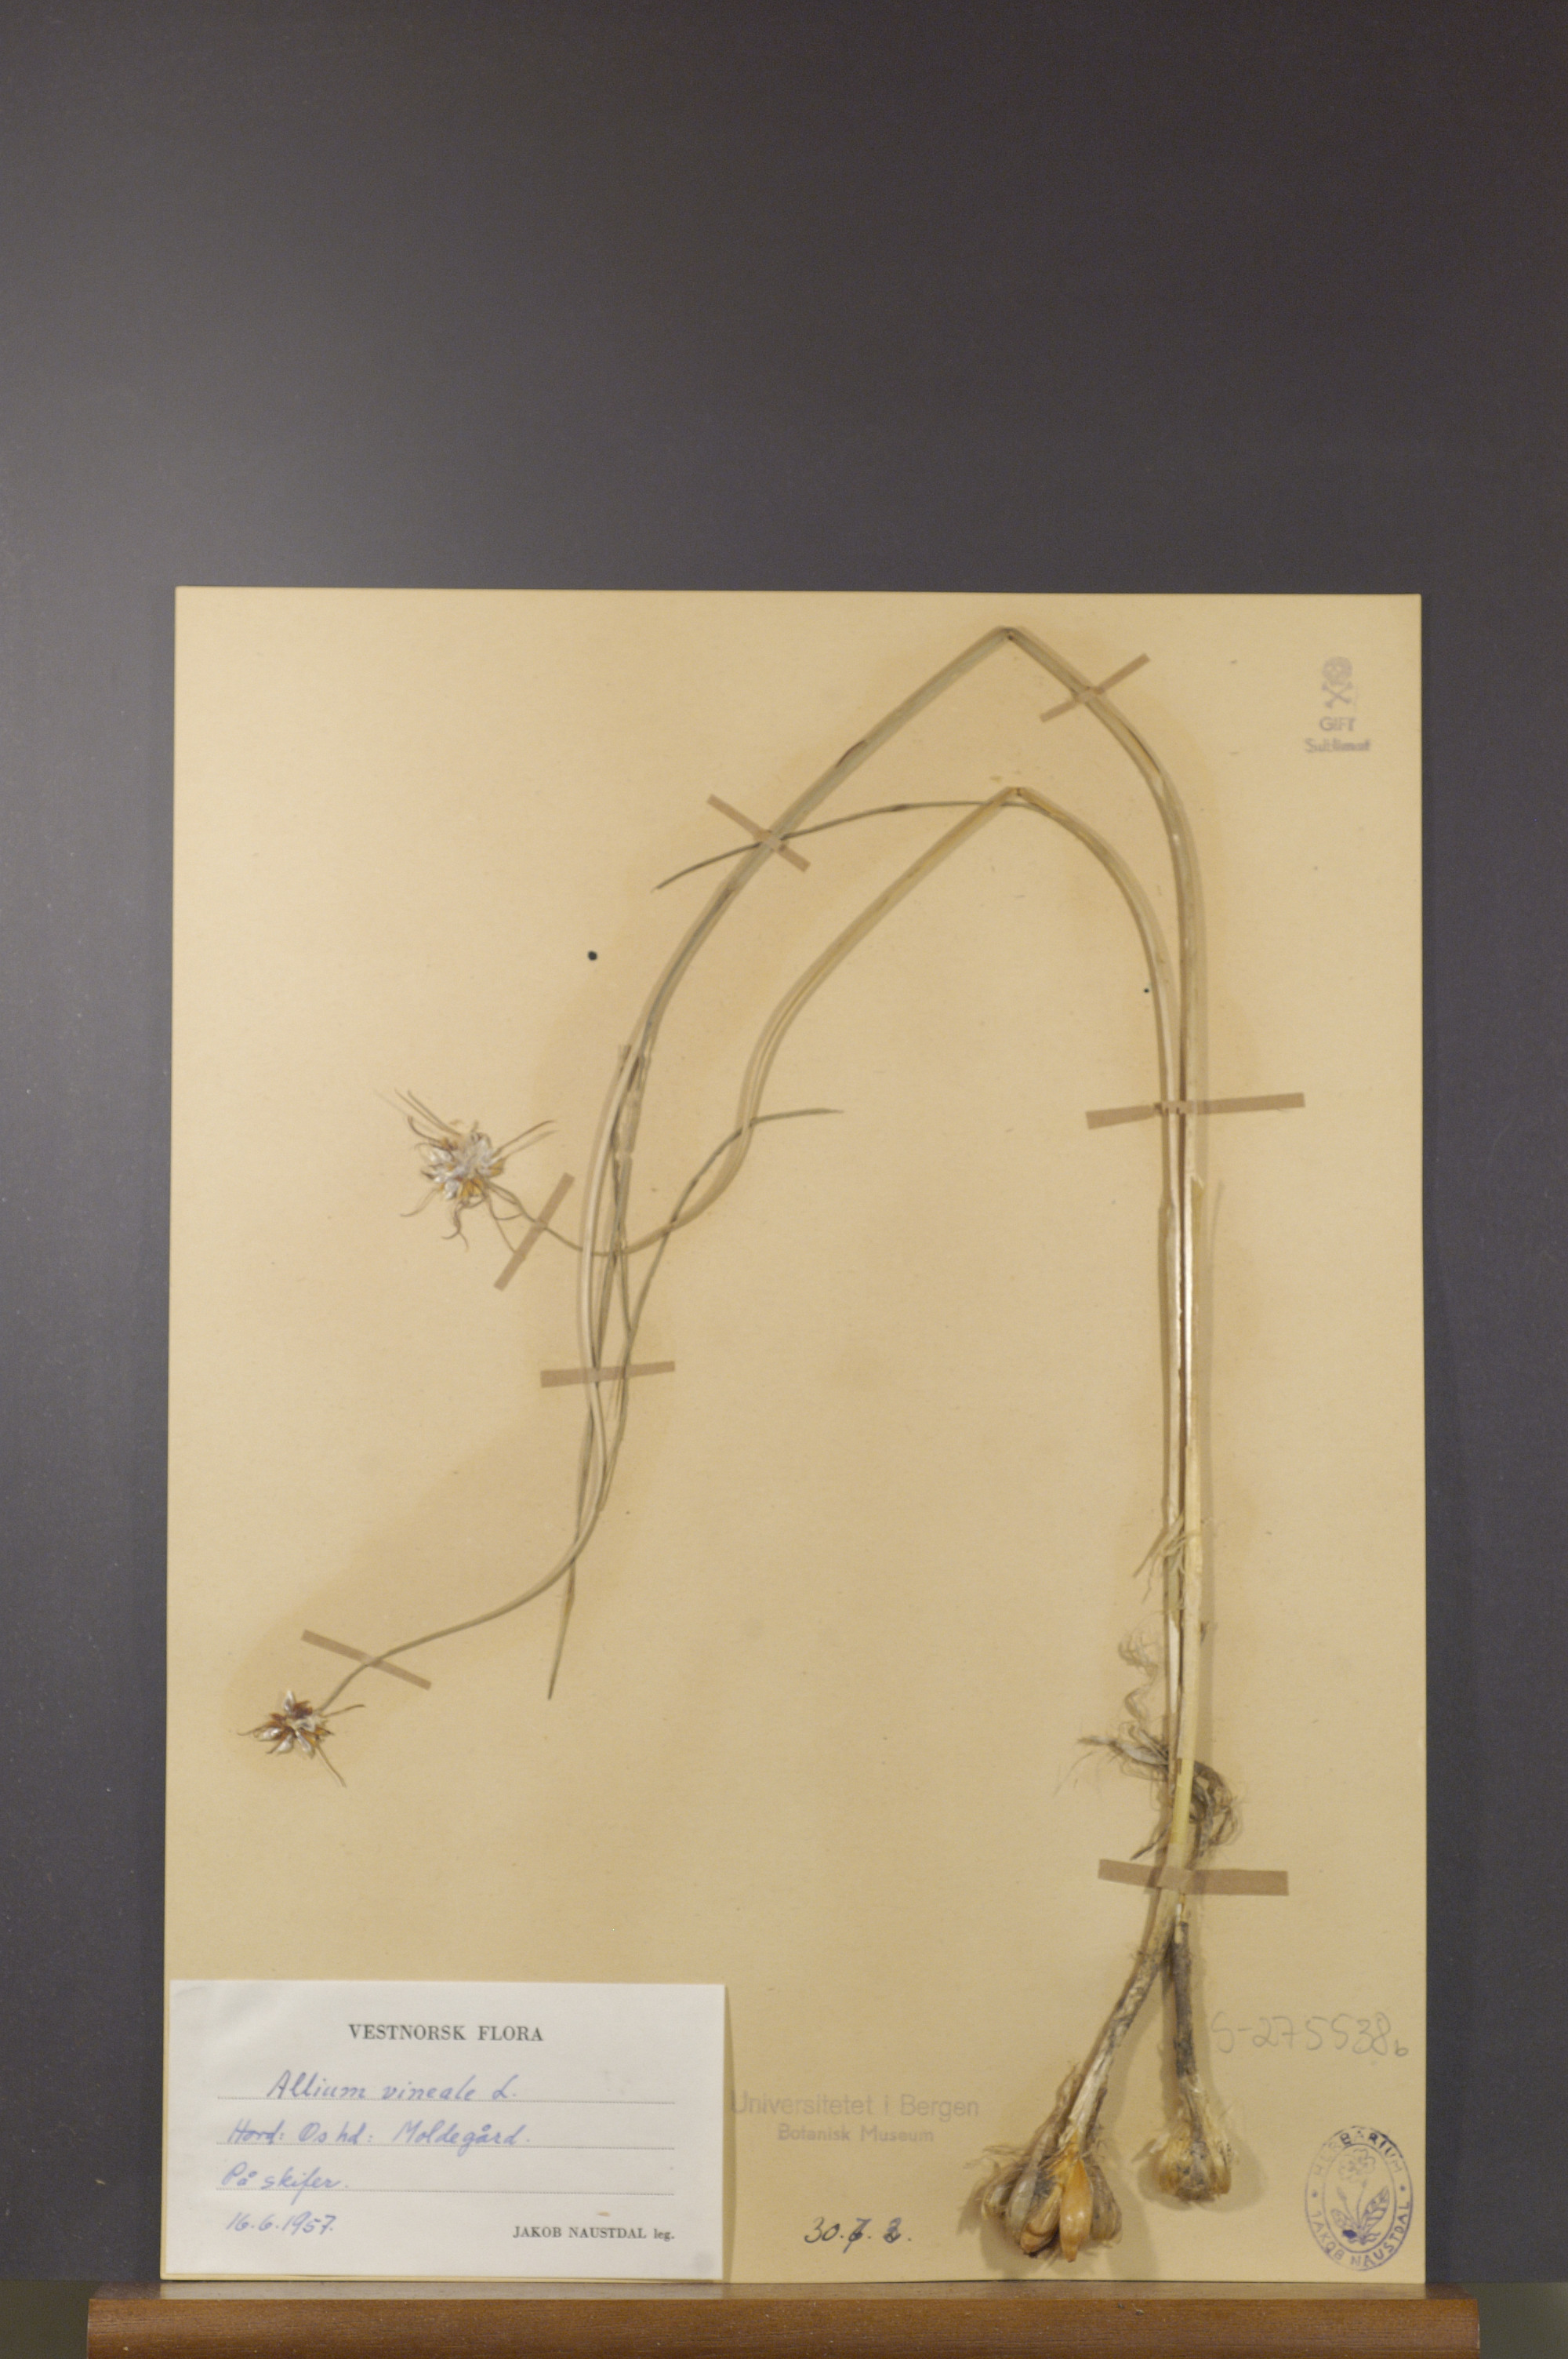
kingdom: Plantae
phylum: Tracheophyta
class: Liliopsida
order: Asparagales
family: Amaryllidaceae
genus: Allium
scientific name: Allium oleraceum
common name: Field garlic
